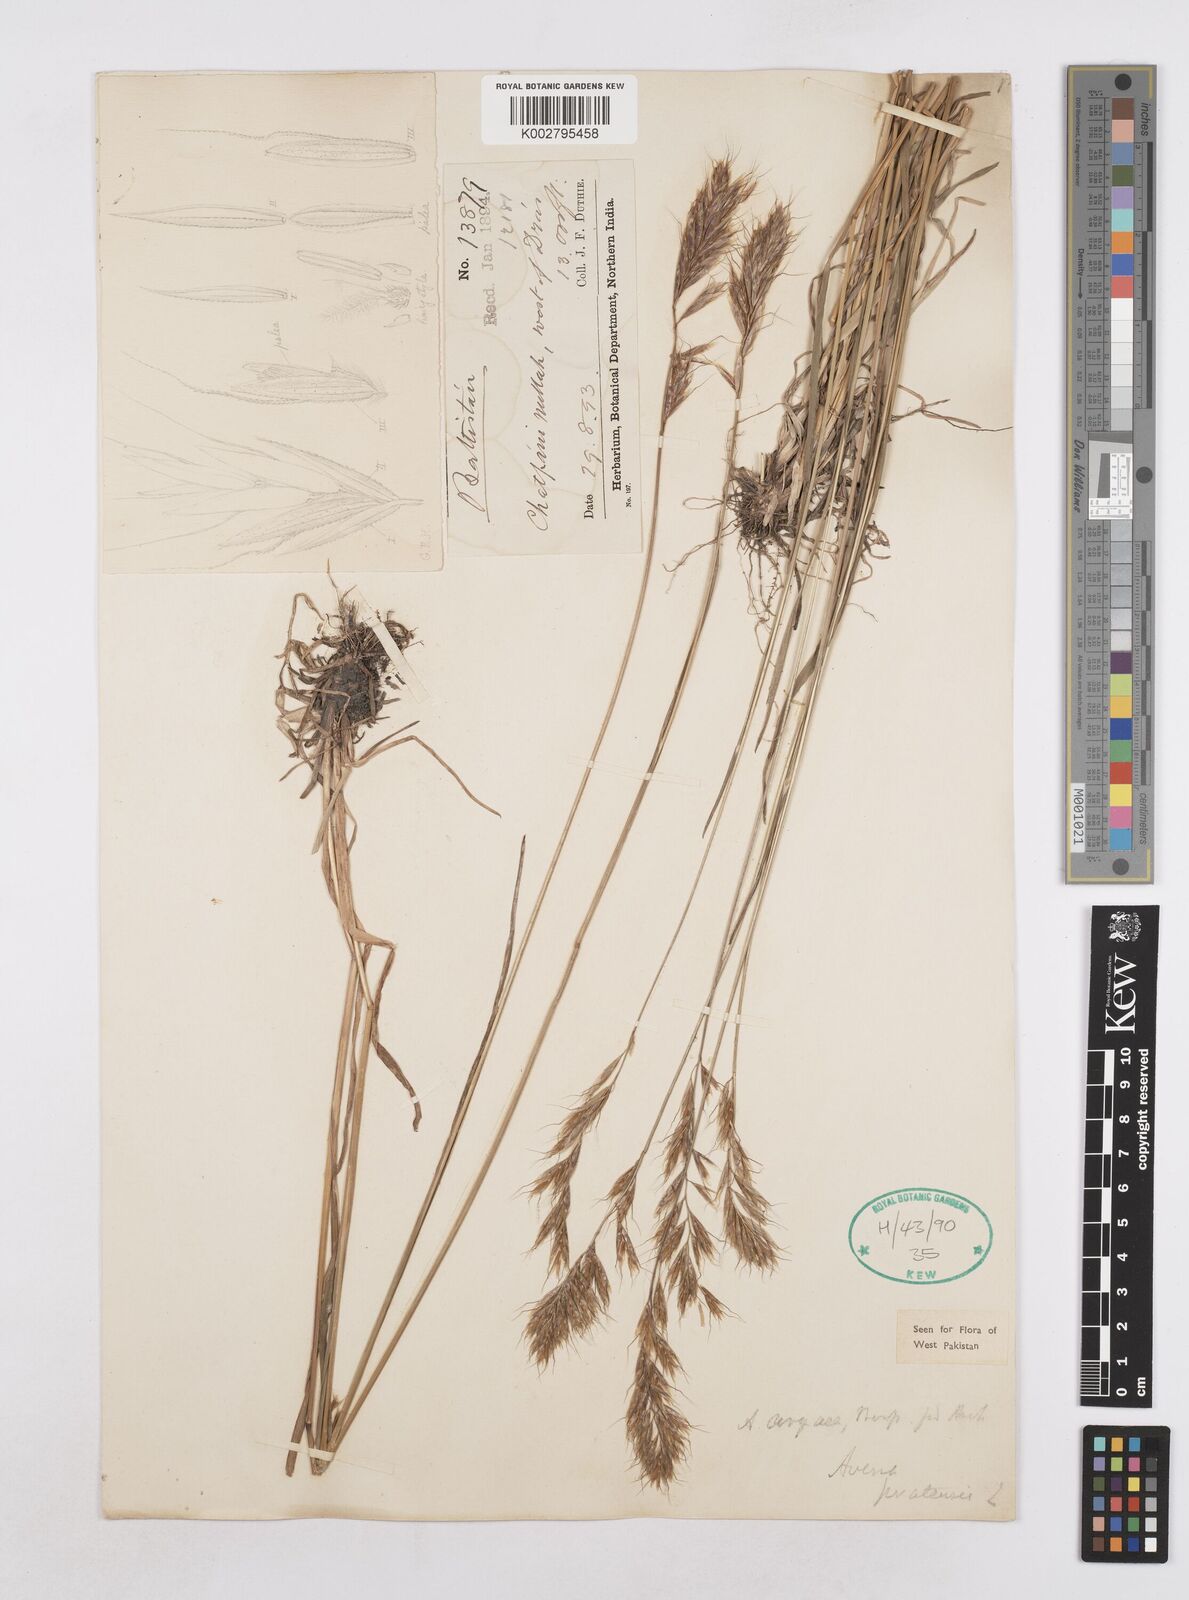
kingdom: Plantae
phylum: Tracheophyta
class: Liliopsida
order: Poales
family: Poaceae
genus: Helictochloa
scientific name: Helictochloa pratensis
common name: Meadow oat grass
